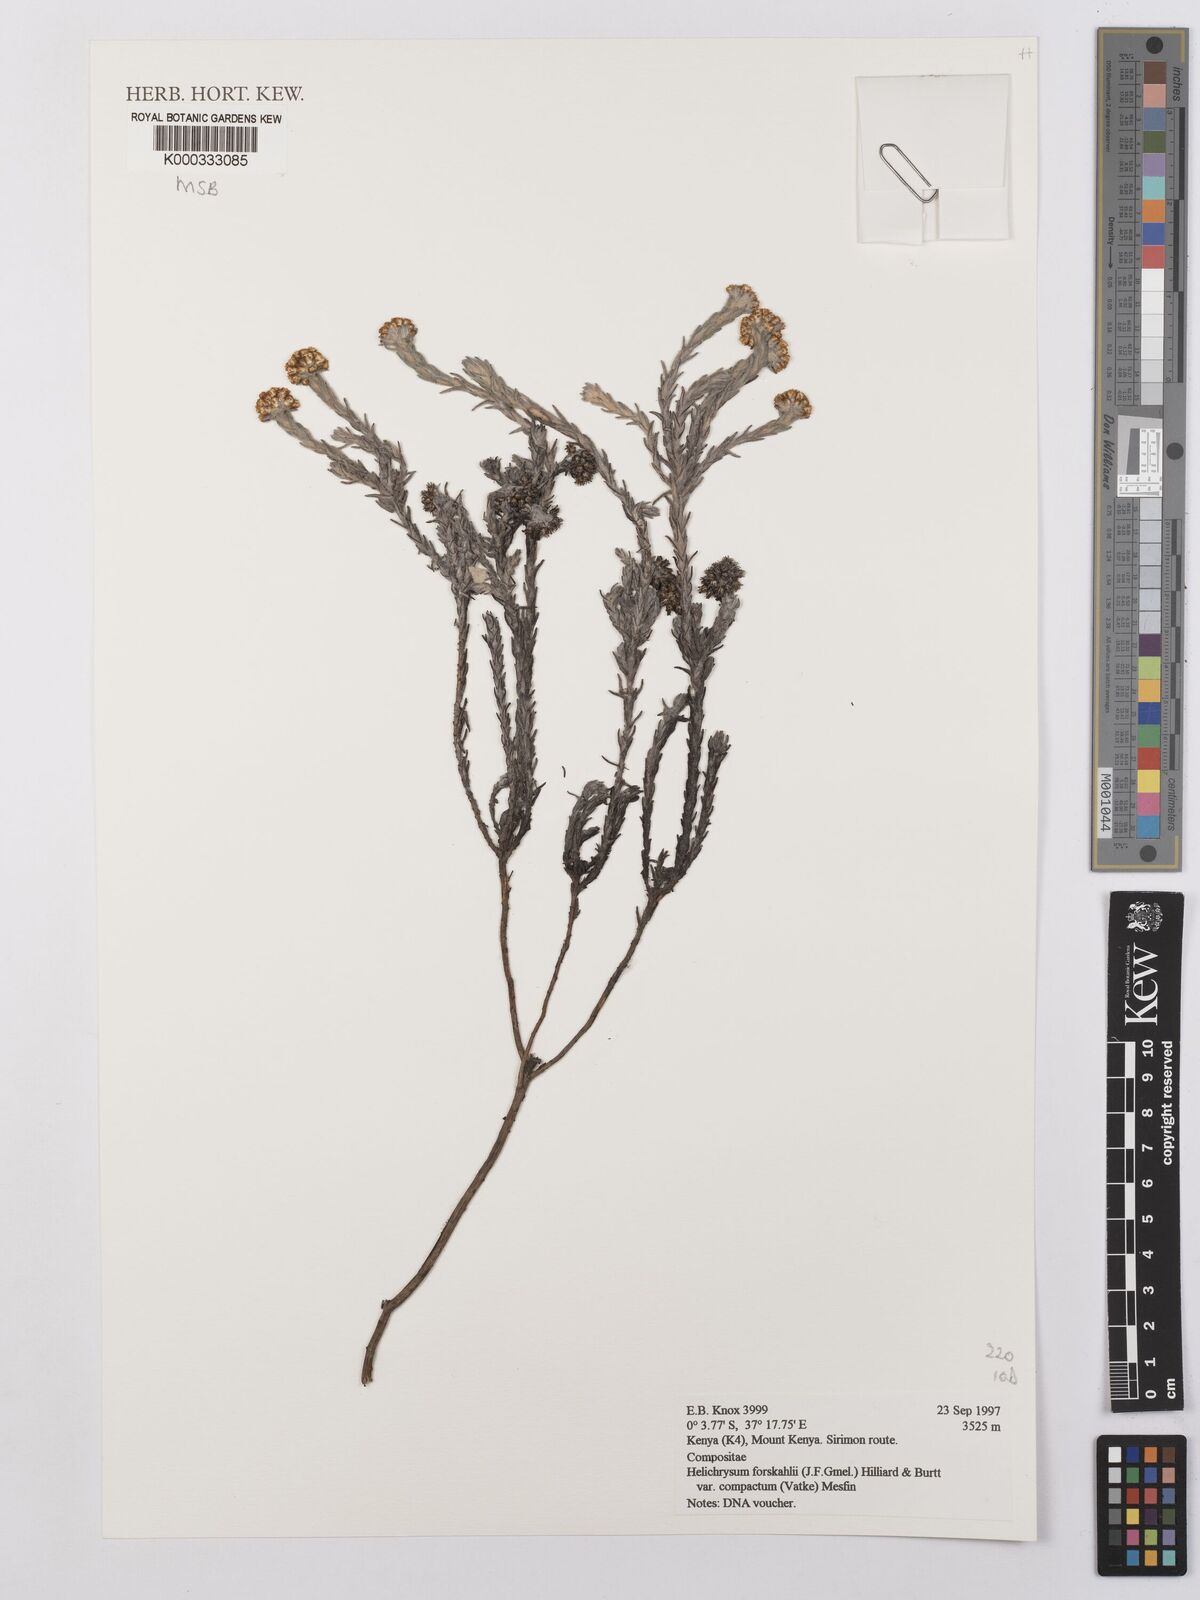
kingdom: Plantae
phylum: Tracheophyta
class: Magnoliopsida
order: Asterales
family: Asteraceae
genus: Helichrysum
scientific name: Helichrysum forskahlii
